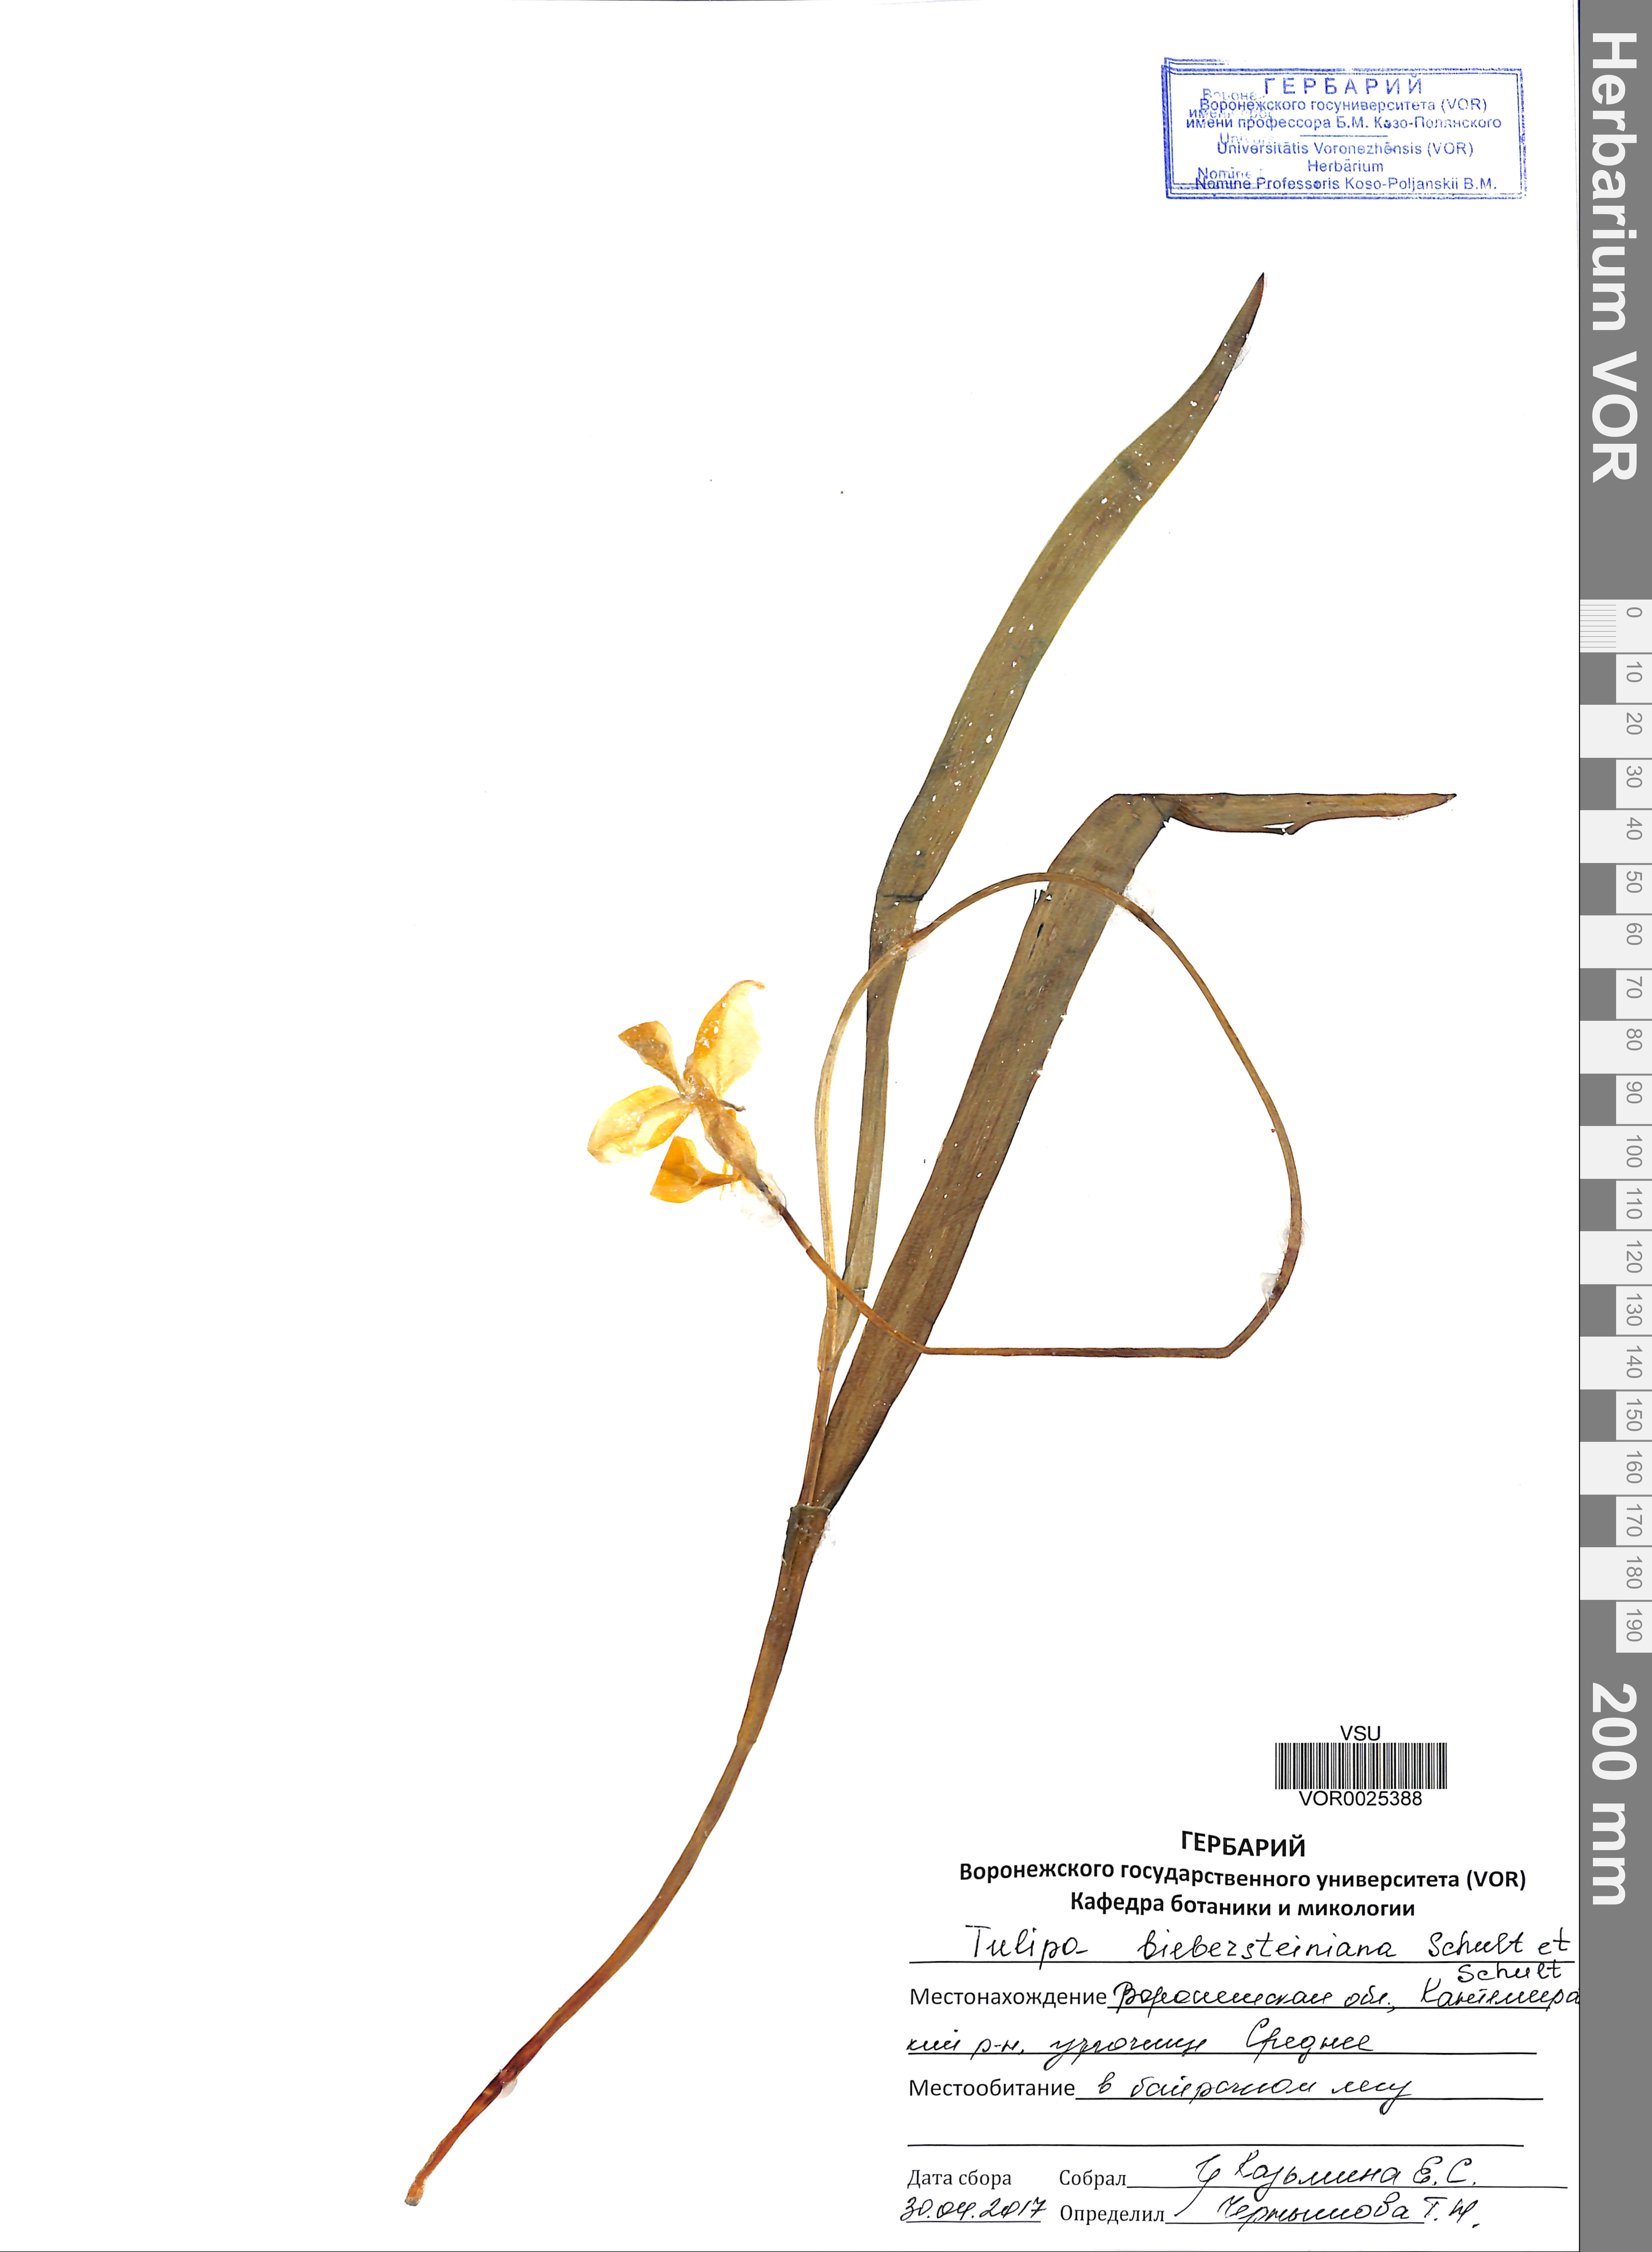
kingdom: Plantae
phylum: Tracheophyta
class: Liliopsida
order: Liliales
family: Liliaceae
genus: Tulipa
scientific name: Tulipa sylvestris
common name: Wild tulip
